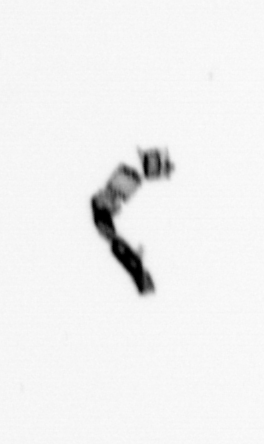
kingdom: Chromista
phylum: Ochrophyta
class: Bacillariophyceae
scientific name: Bacillariophyceae
